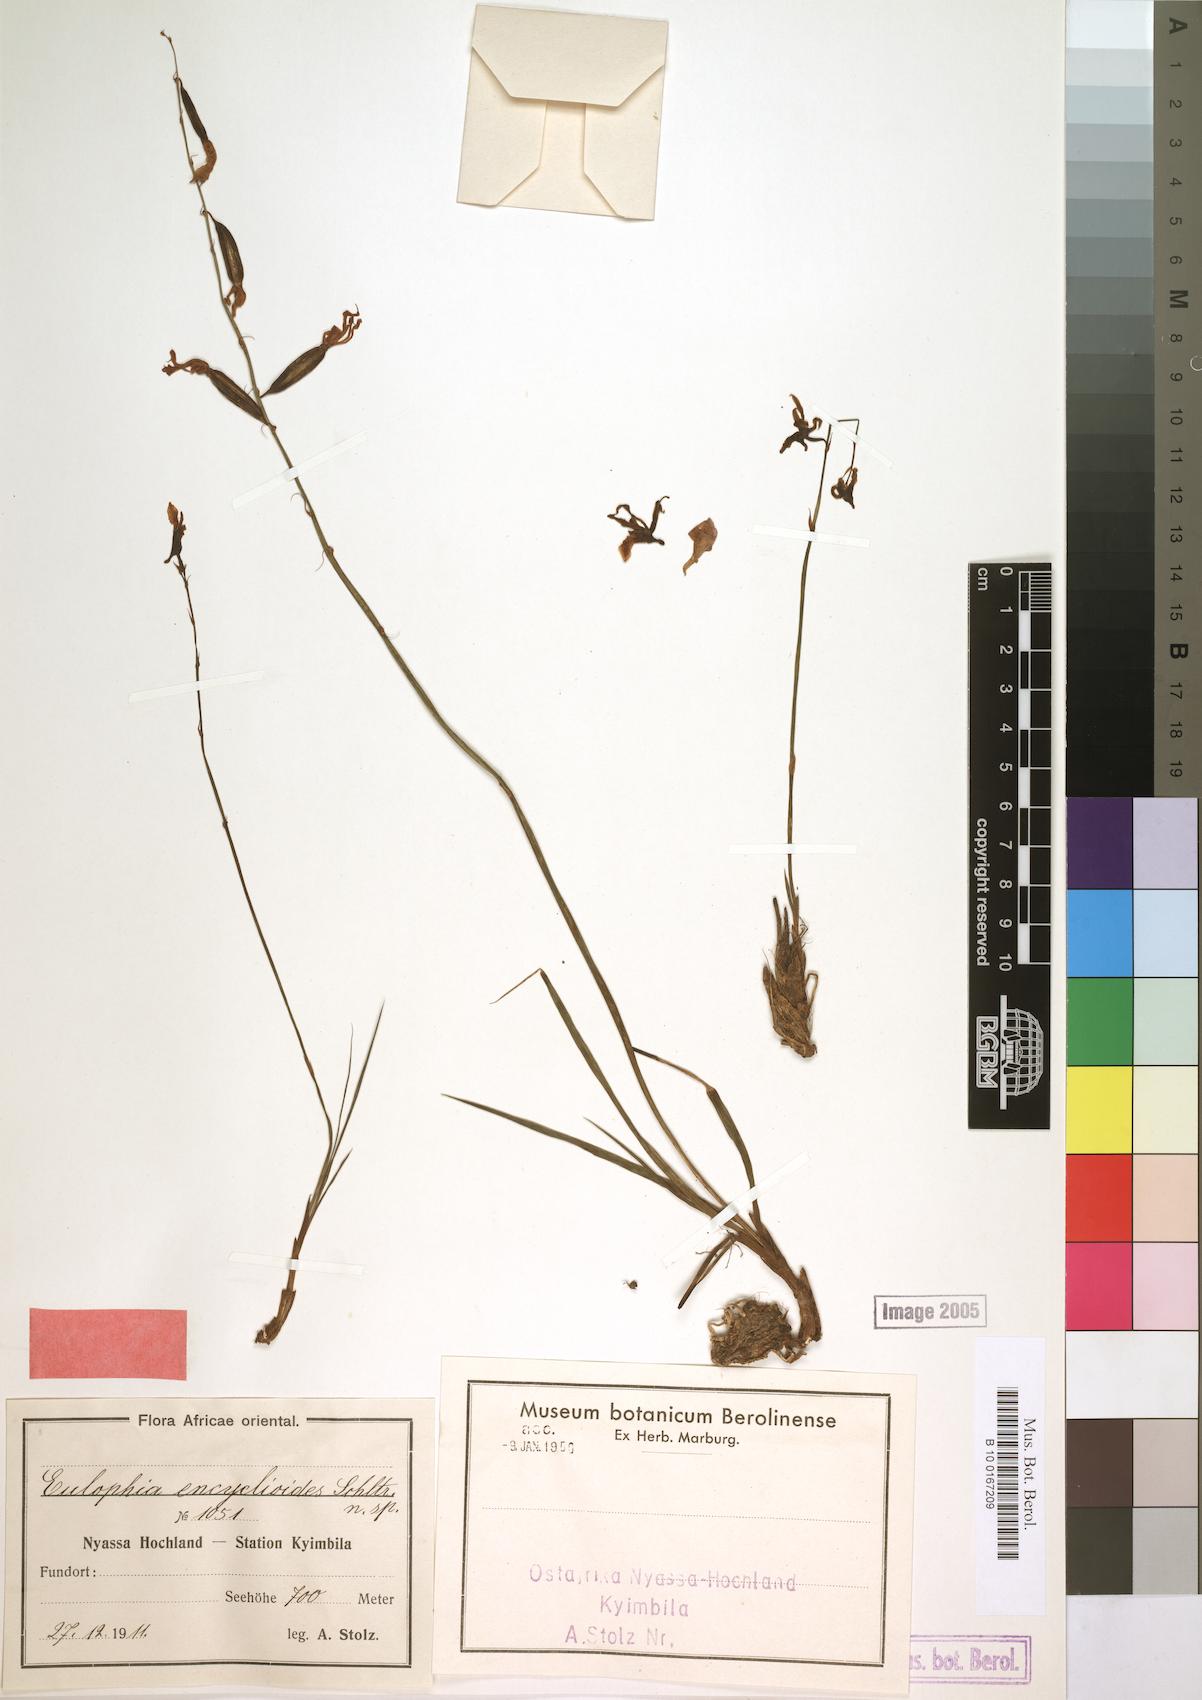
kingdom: Plantae
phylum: Tracheophyta
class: Liliopsida
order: Asparagales
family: Orchidaceae
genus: Eulophia
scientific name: Eulophia venulosa
